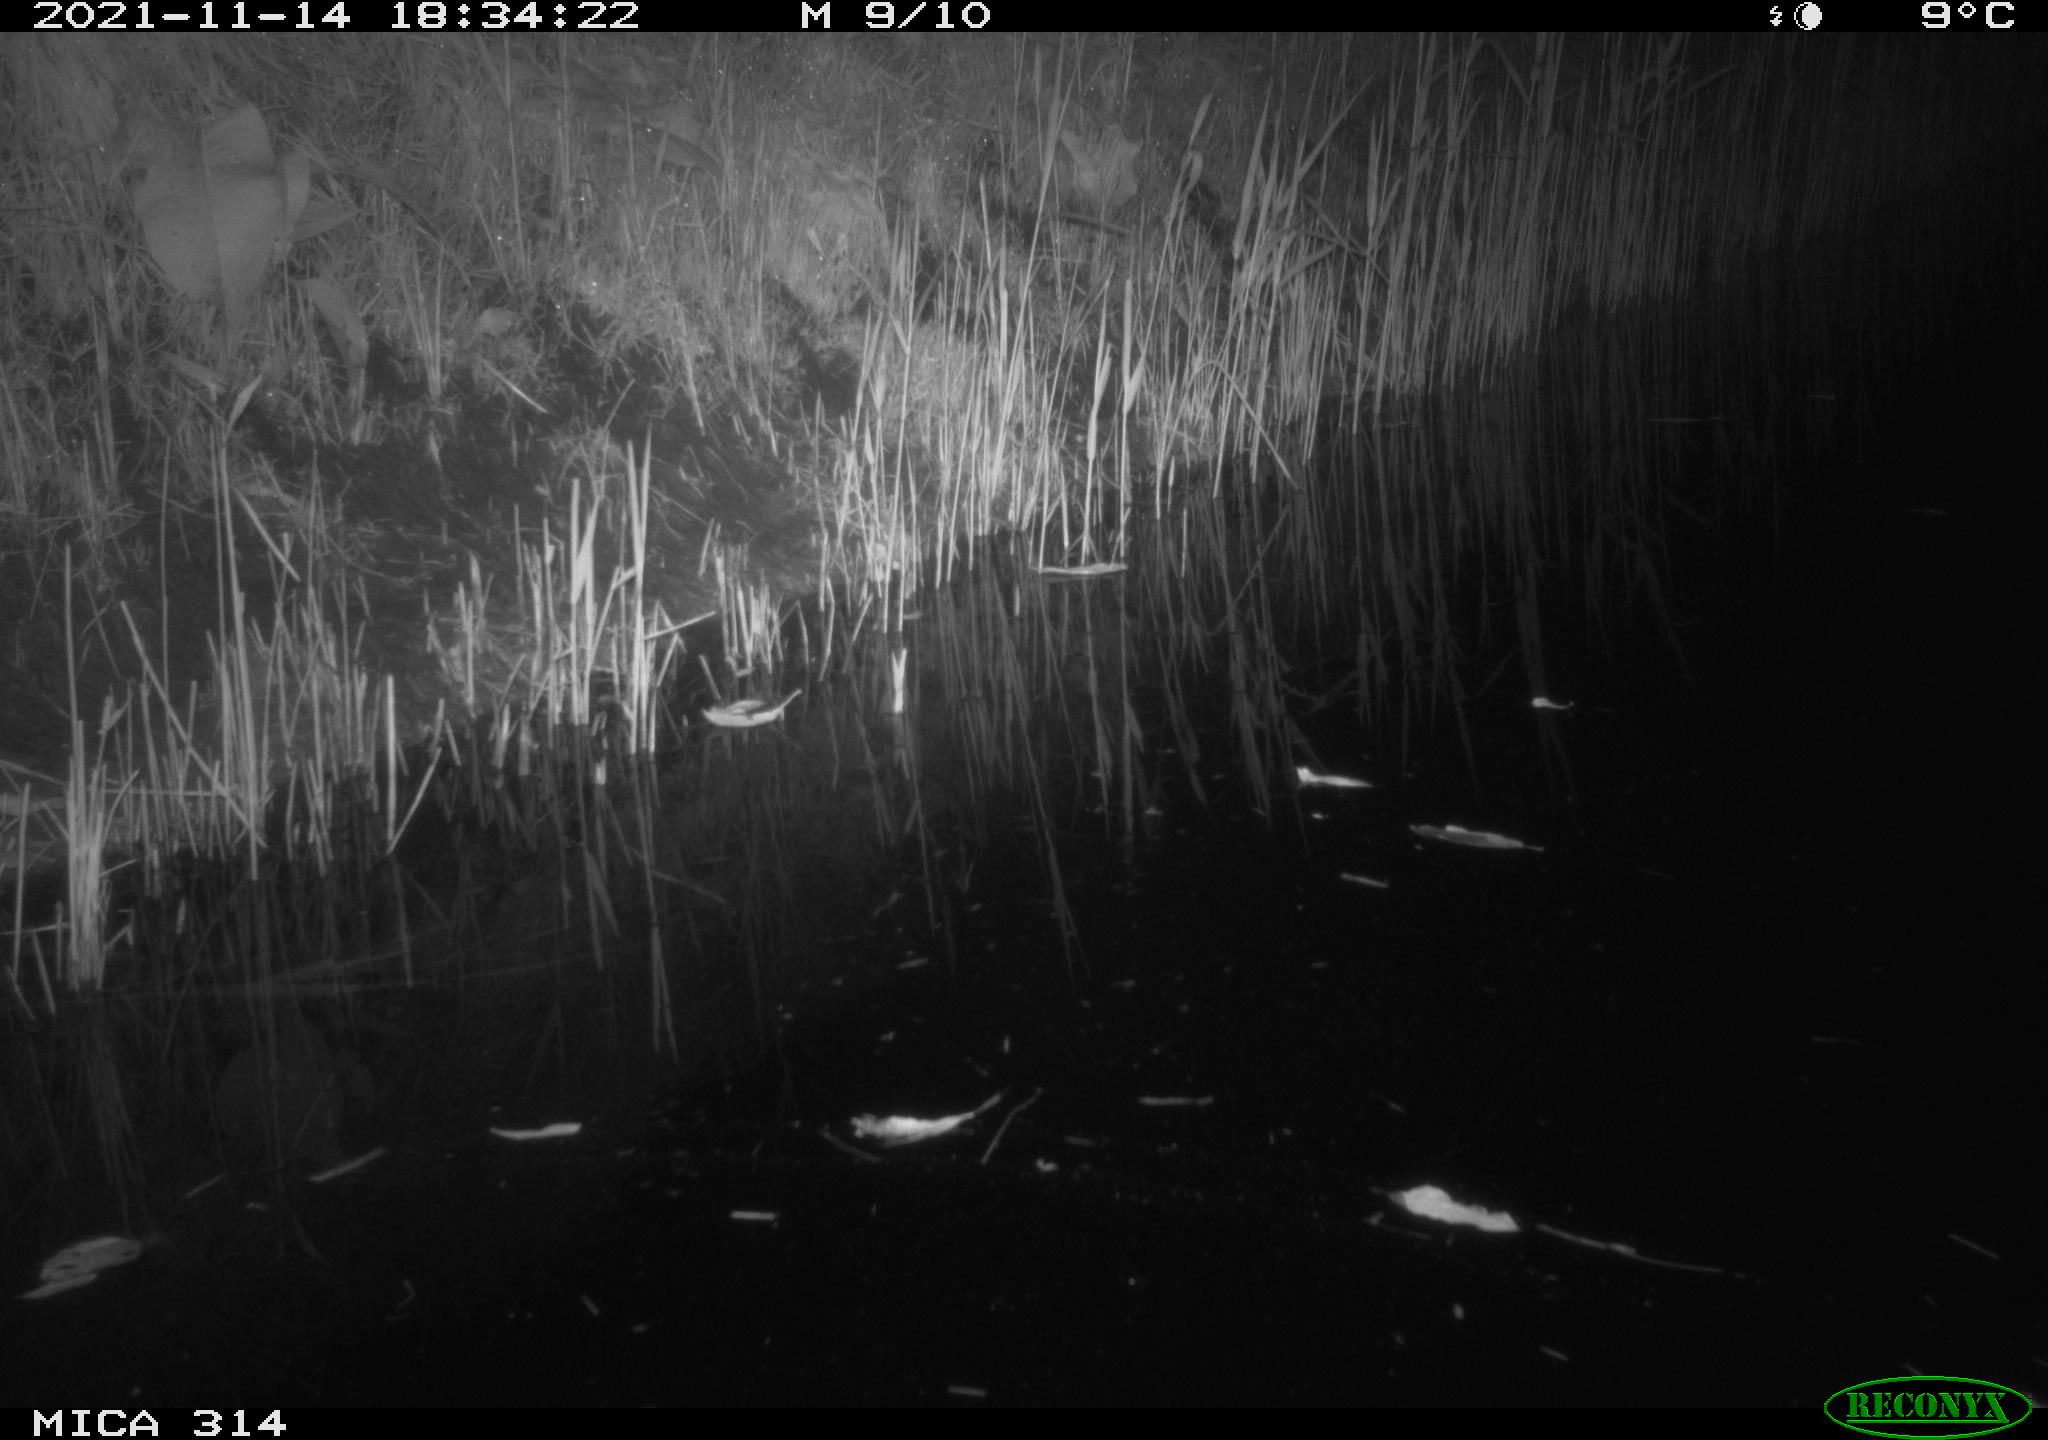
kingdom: Animalia
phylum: Chordata
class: Mammalia
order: Rodentia
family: Muridae
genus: Rattus
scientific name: Rattus norvegicus
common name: Brown rat
